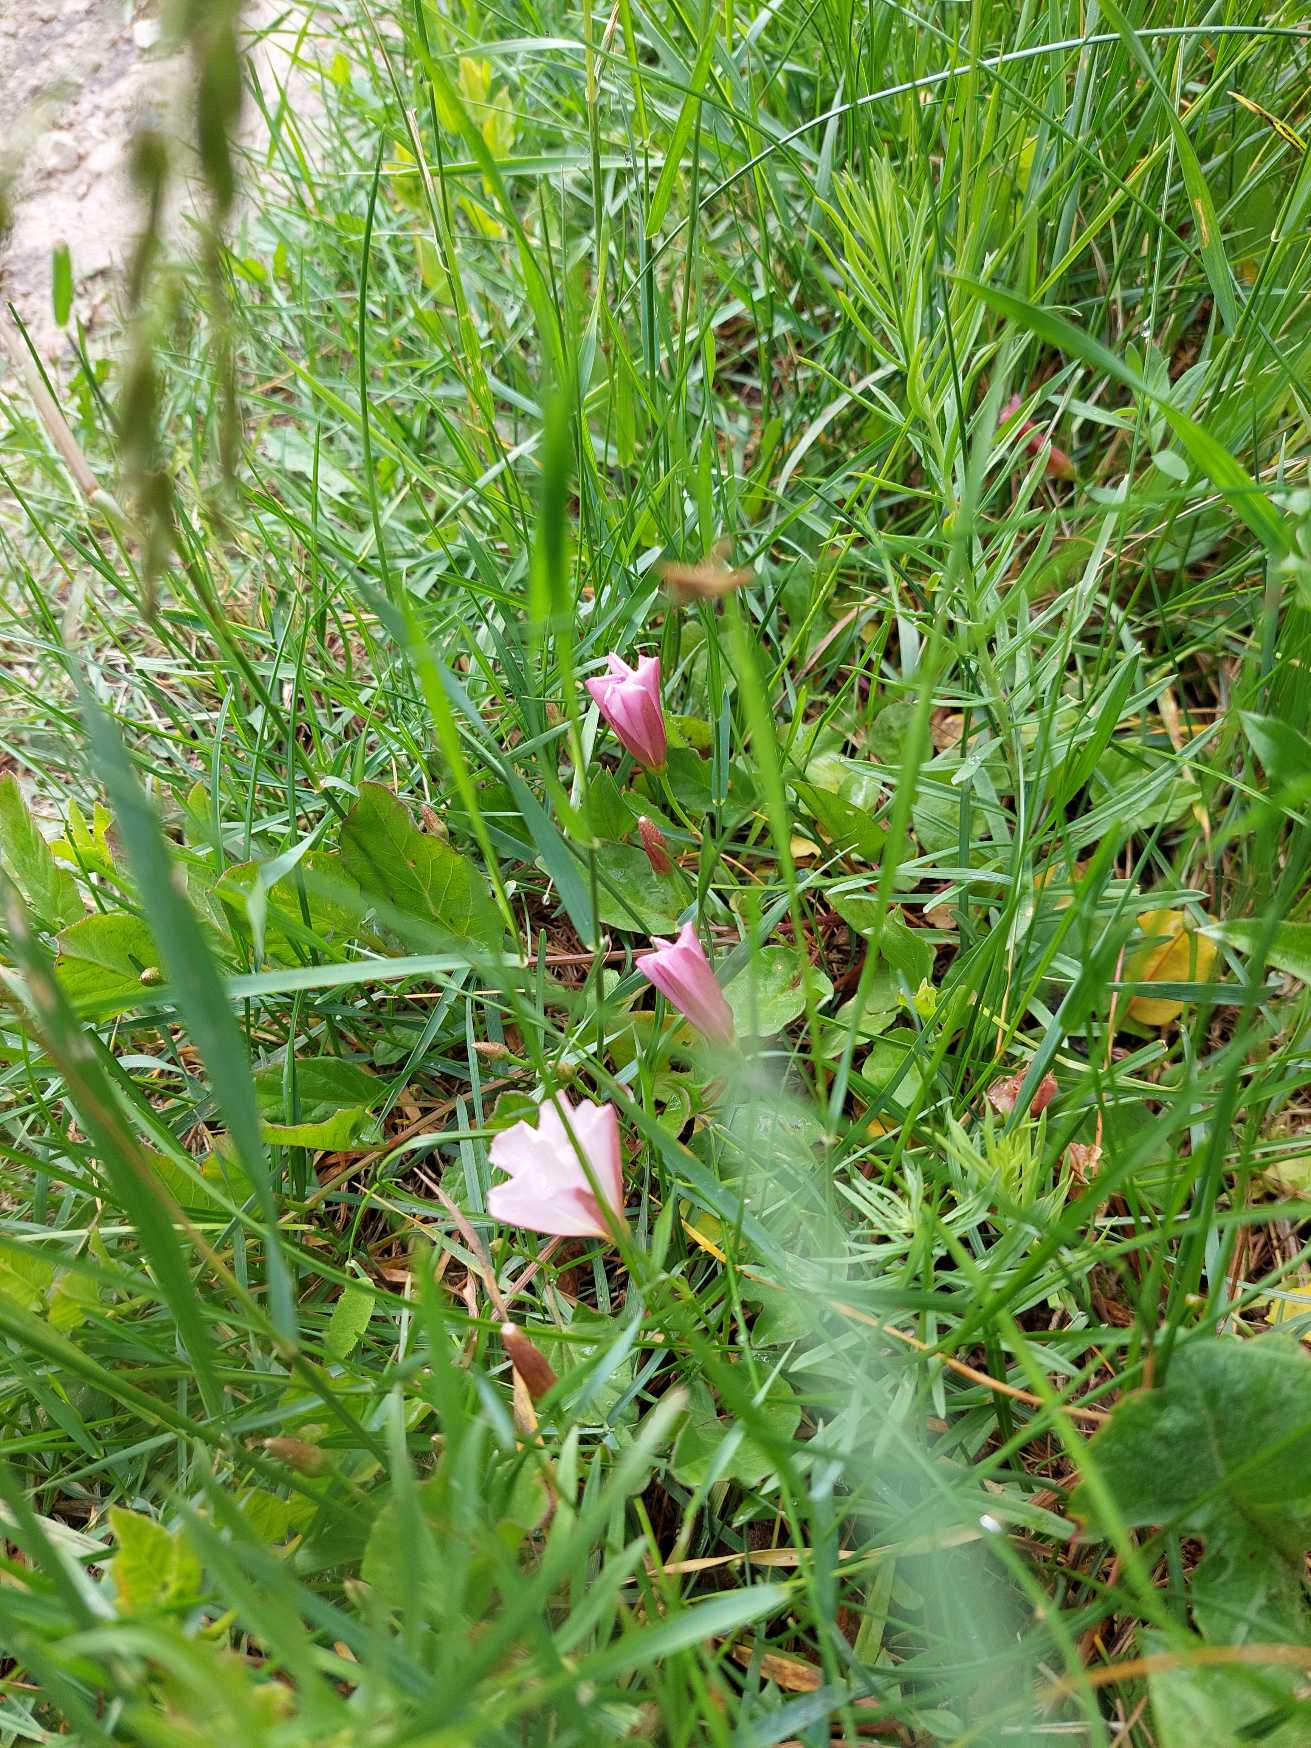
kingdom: Plantae
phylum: Tracheophyta
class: Magnoliopsida
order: Solanales
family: Convolvulaceae
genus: Convolvulus
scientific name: Convolvulus arvensis
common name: Ager-snerle
